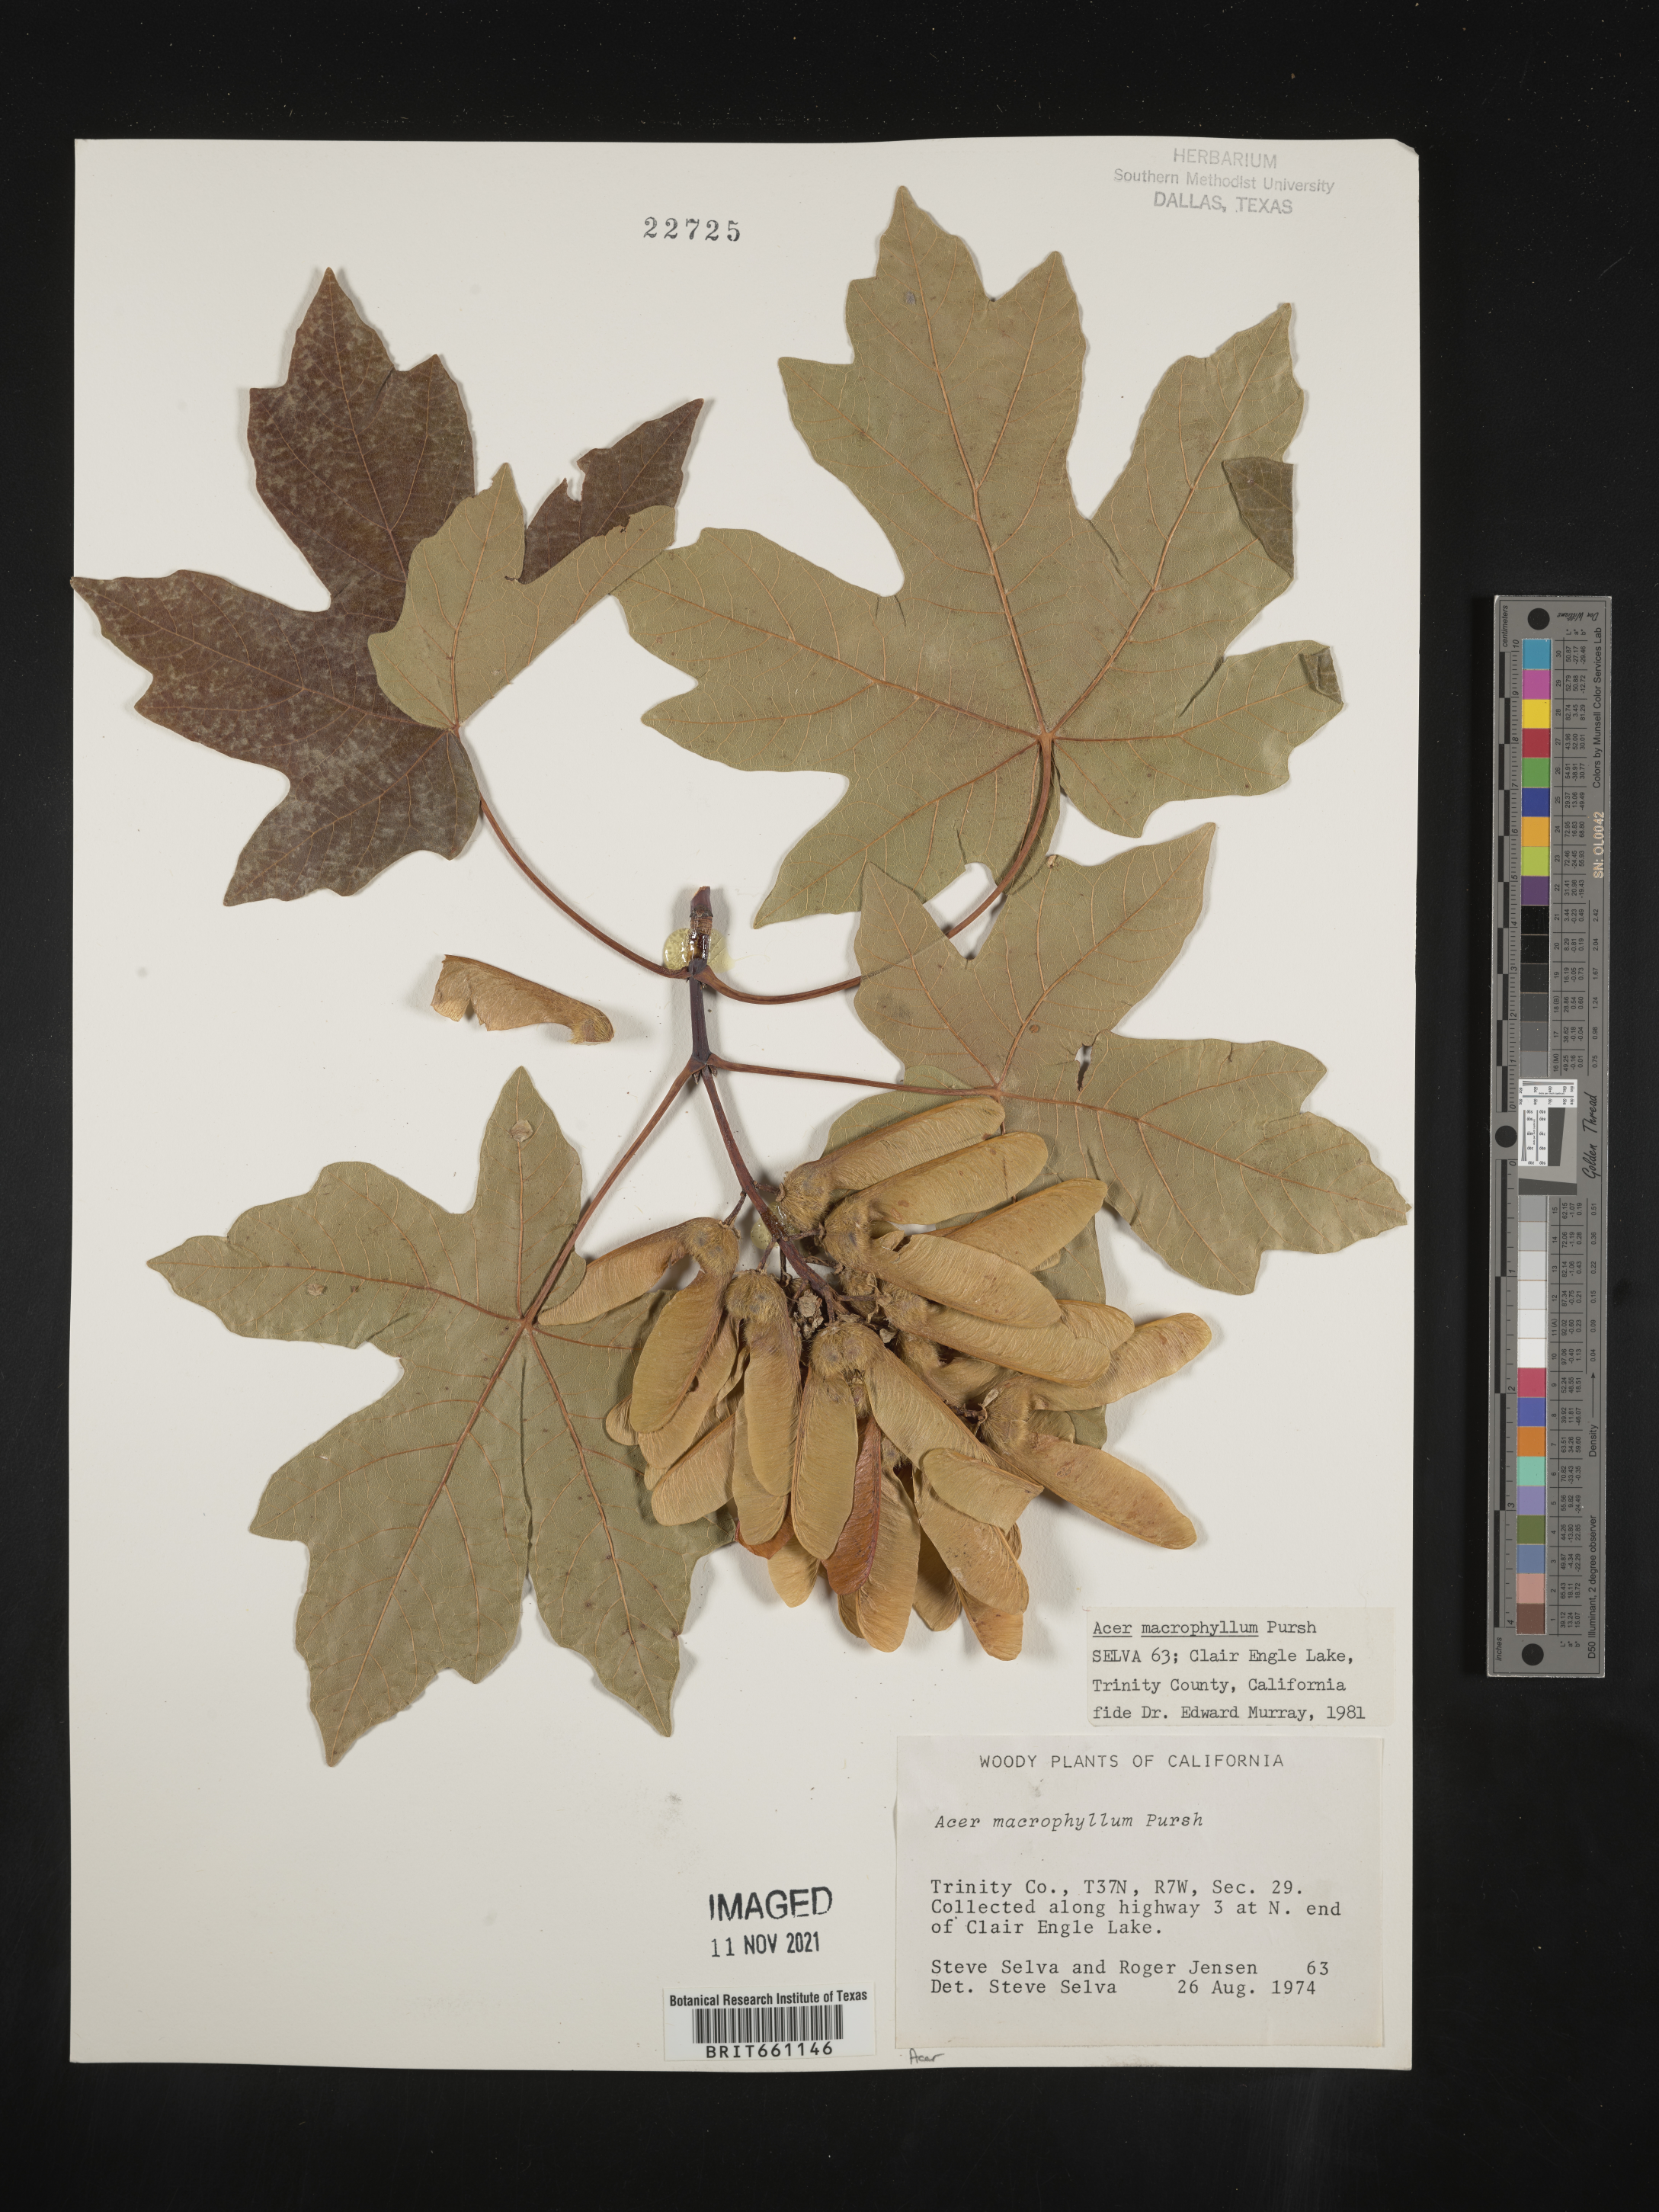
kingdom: Plantae
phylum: Tracheophyta
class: Magnoliopsida
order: Sapindales
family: Sapindaceae
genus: Acer
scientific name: Acer macrophyllum
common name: Oregon maple
